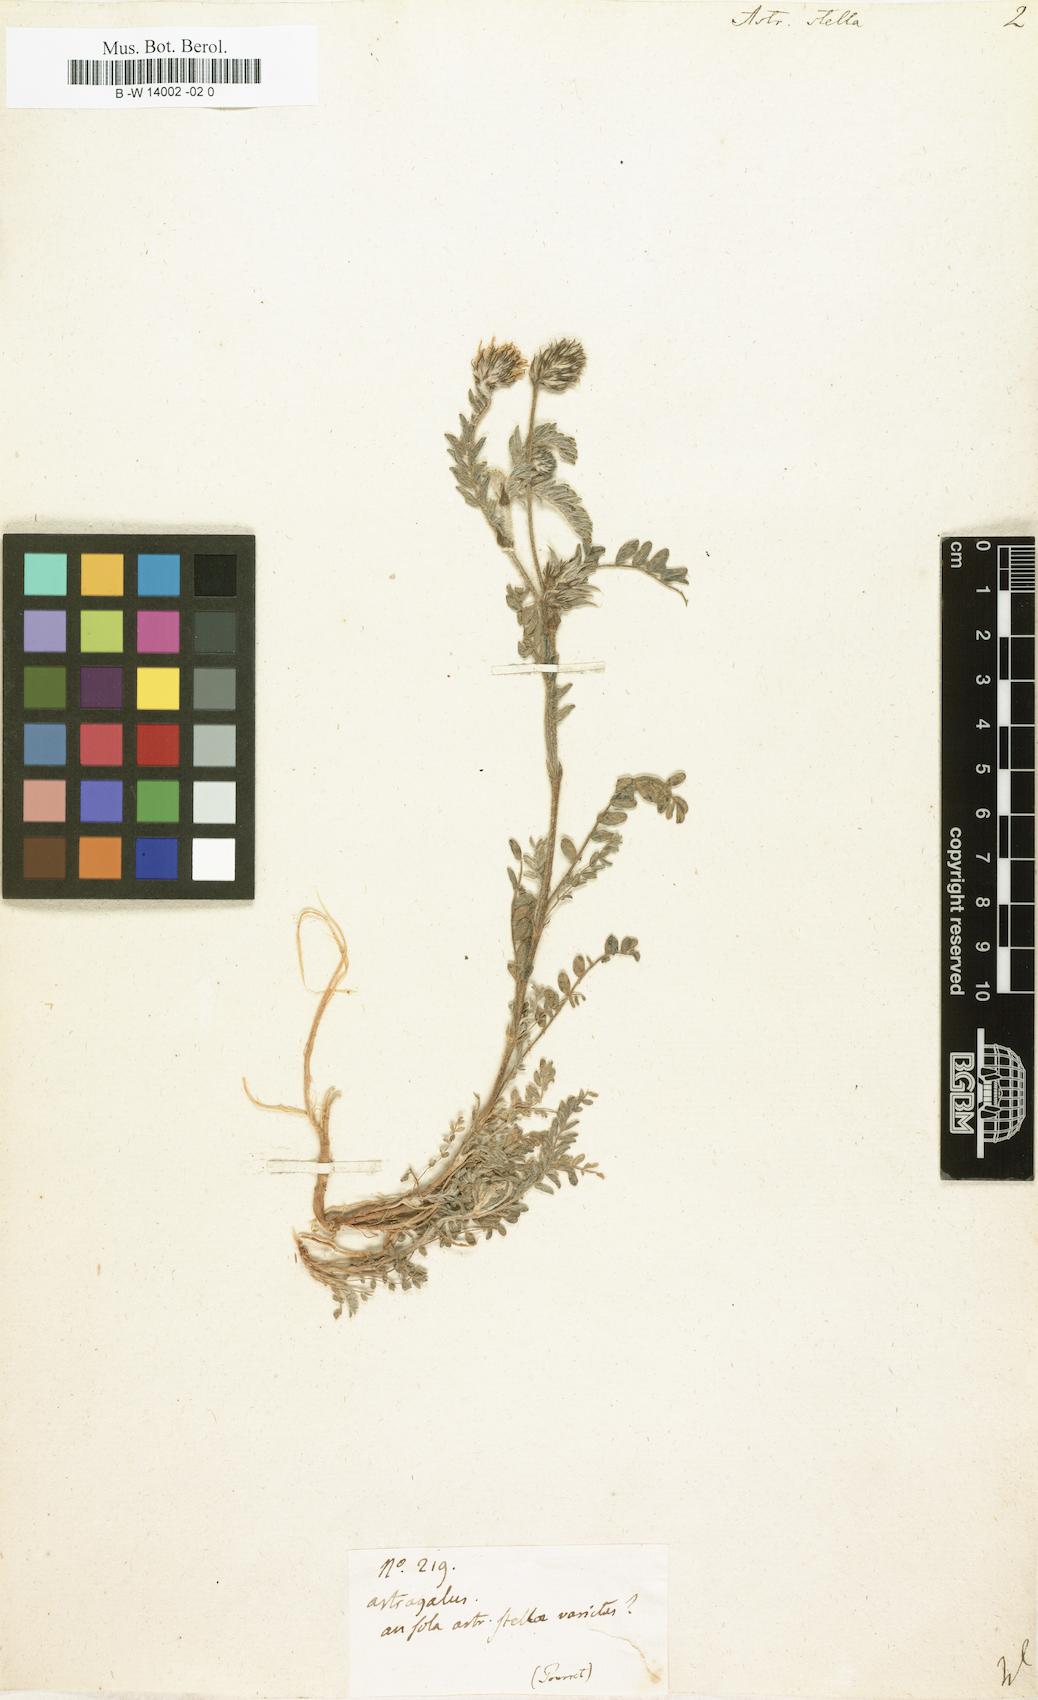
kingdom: Plantae
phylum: Tracheophyta
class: Magnoliopsida
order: Fabales
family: Fabaceae
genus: Astragalus
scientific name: Astragalus stella
